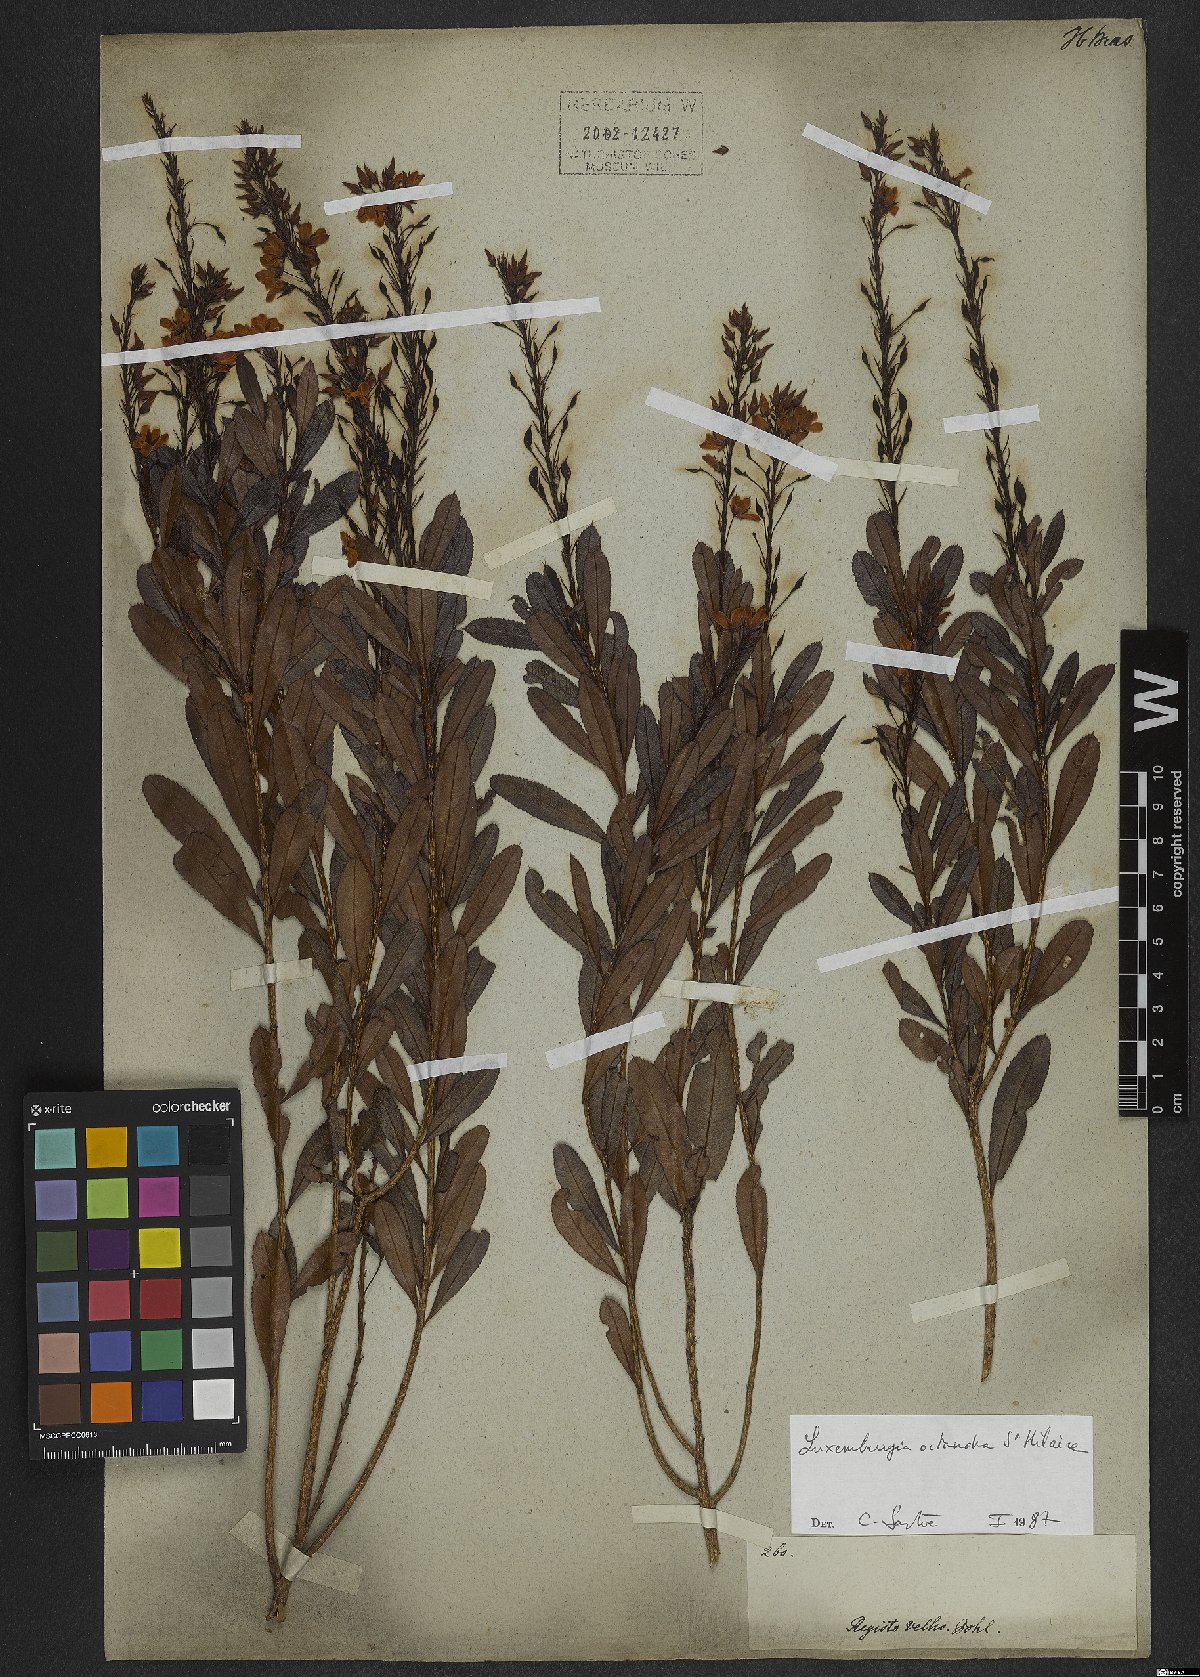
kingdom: Plantae
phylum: Tracheophyta
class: Magnoliopsida
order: Malpighiales
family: Ochnaceae
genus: Luxemburgia
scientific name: Luxemburgia octandra
